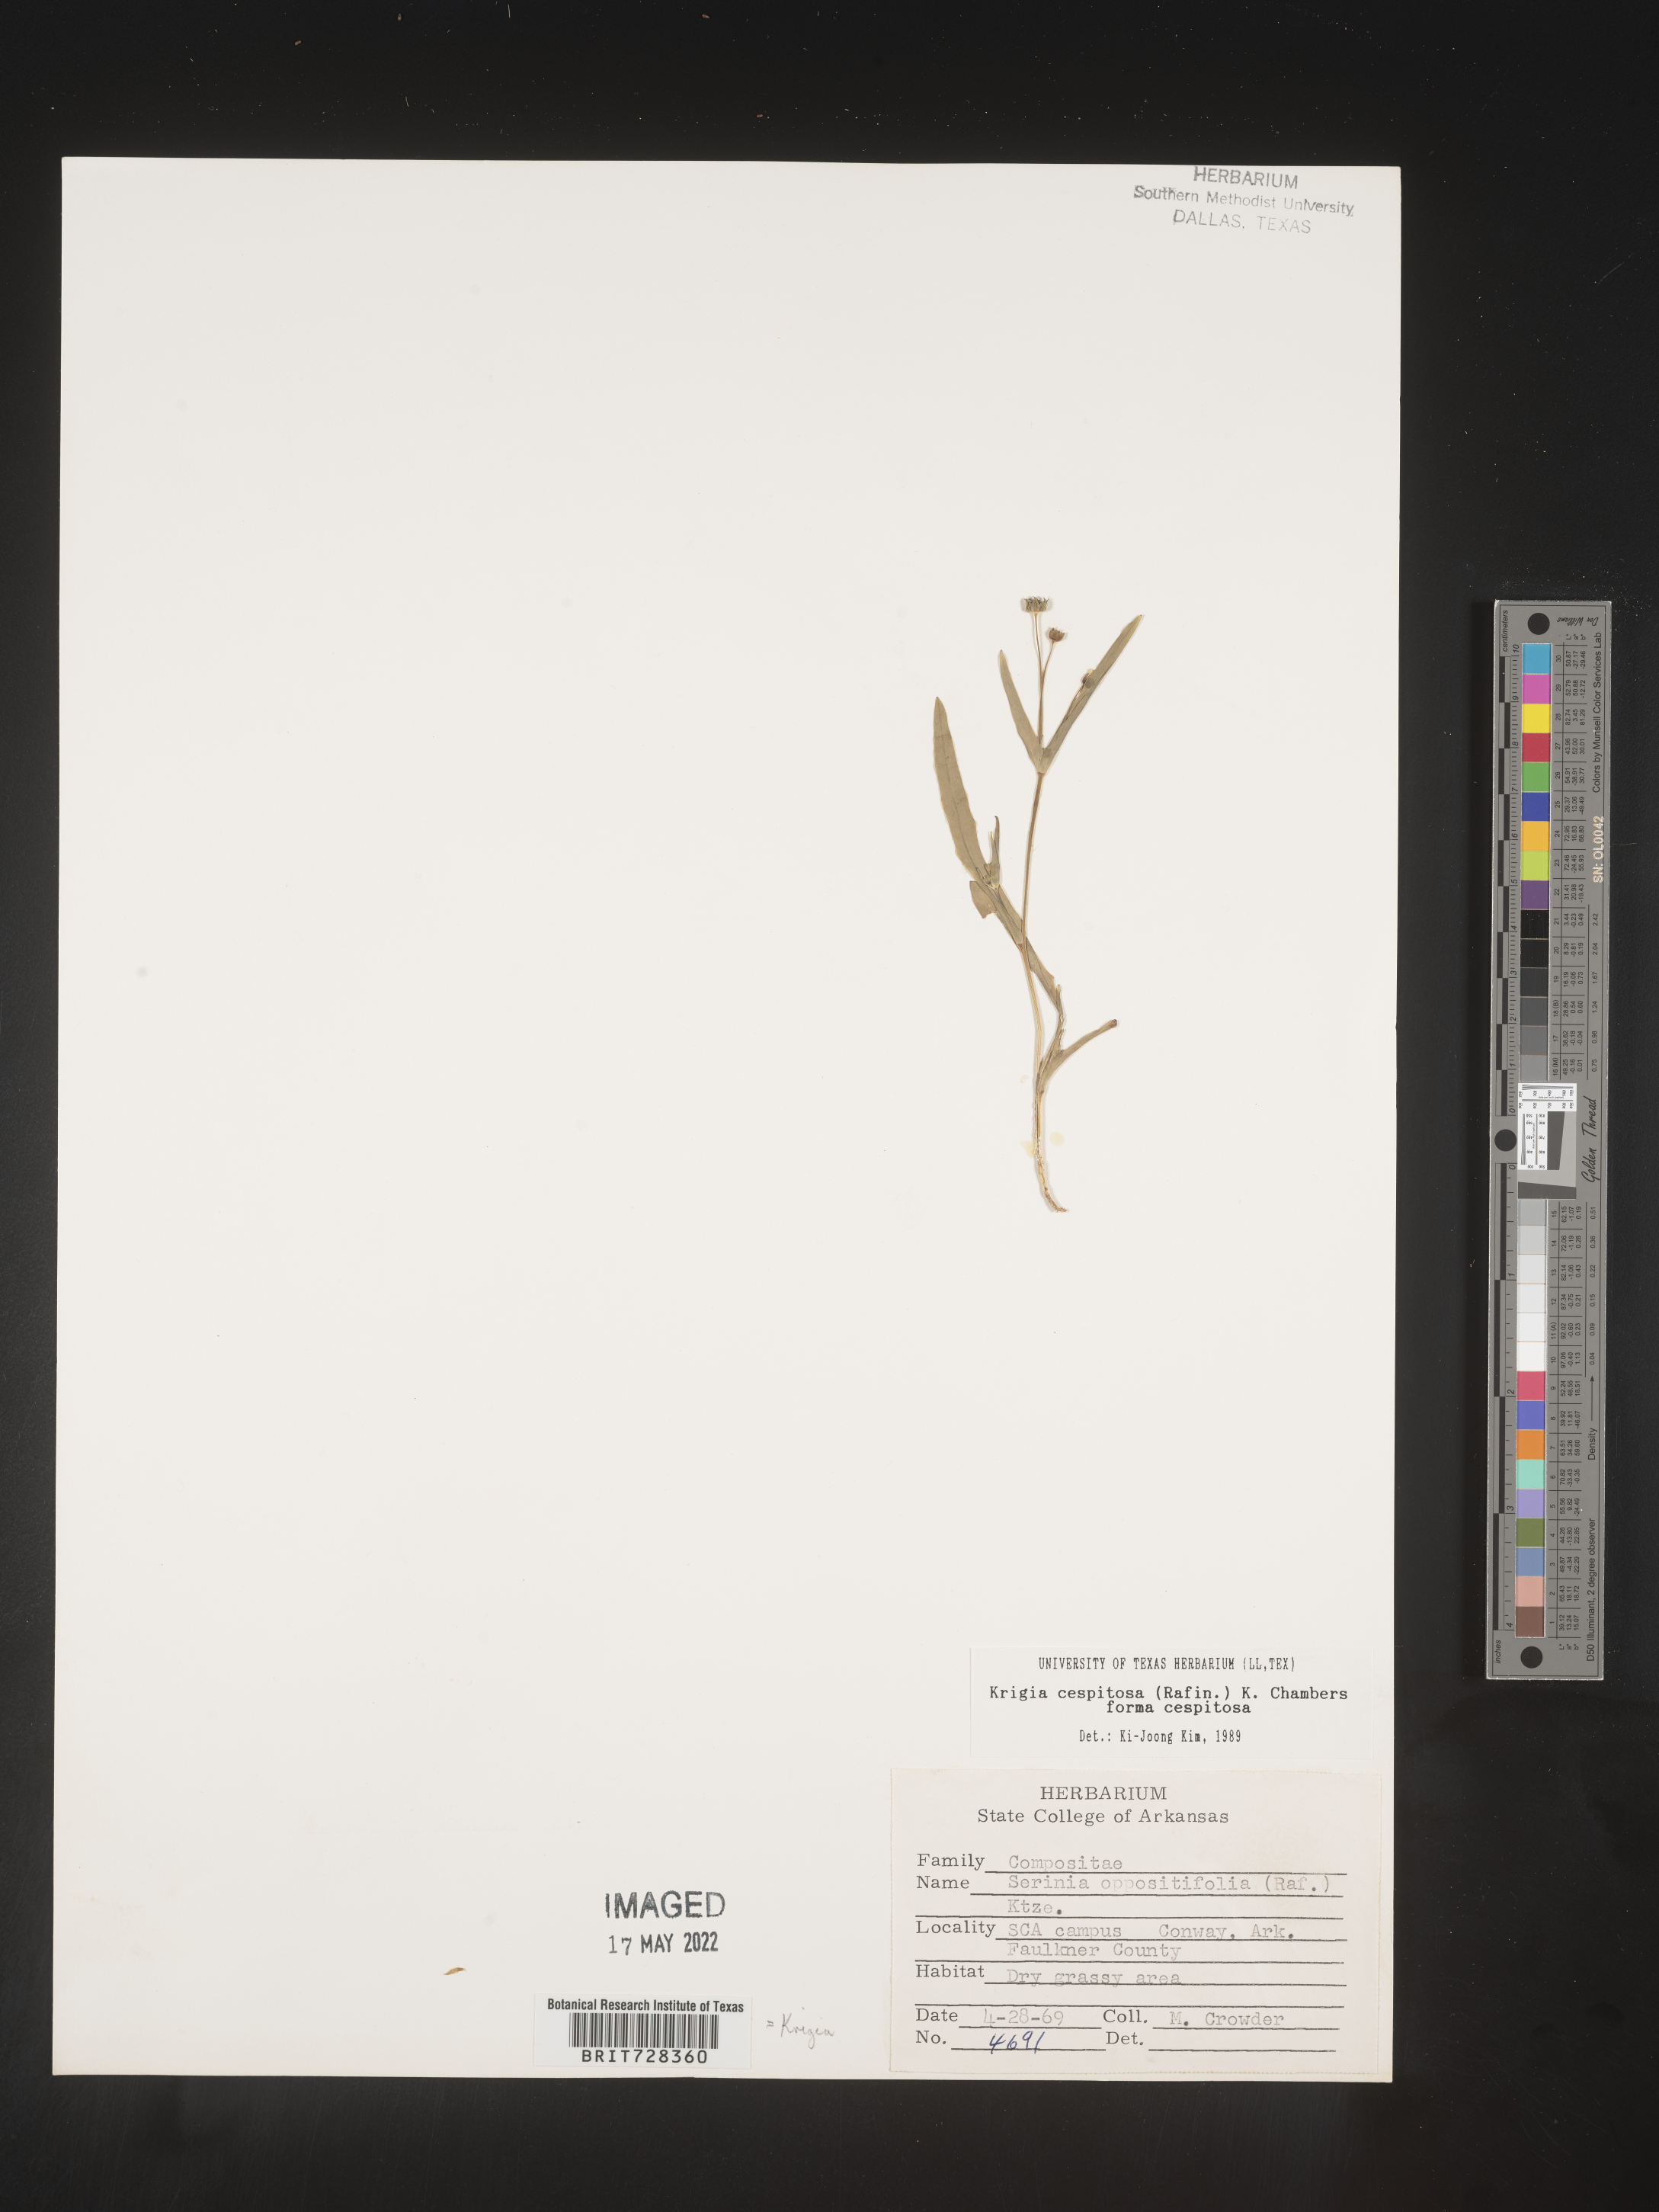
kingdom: Plantae
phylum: Tracheophyta
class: Magnoliopsida
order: Asterales
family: Asteraceae
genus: Krigia
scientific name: Krigia caespitosa
